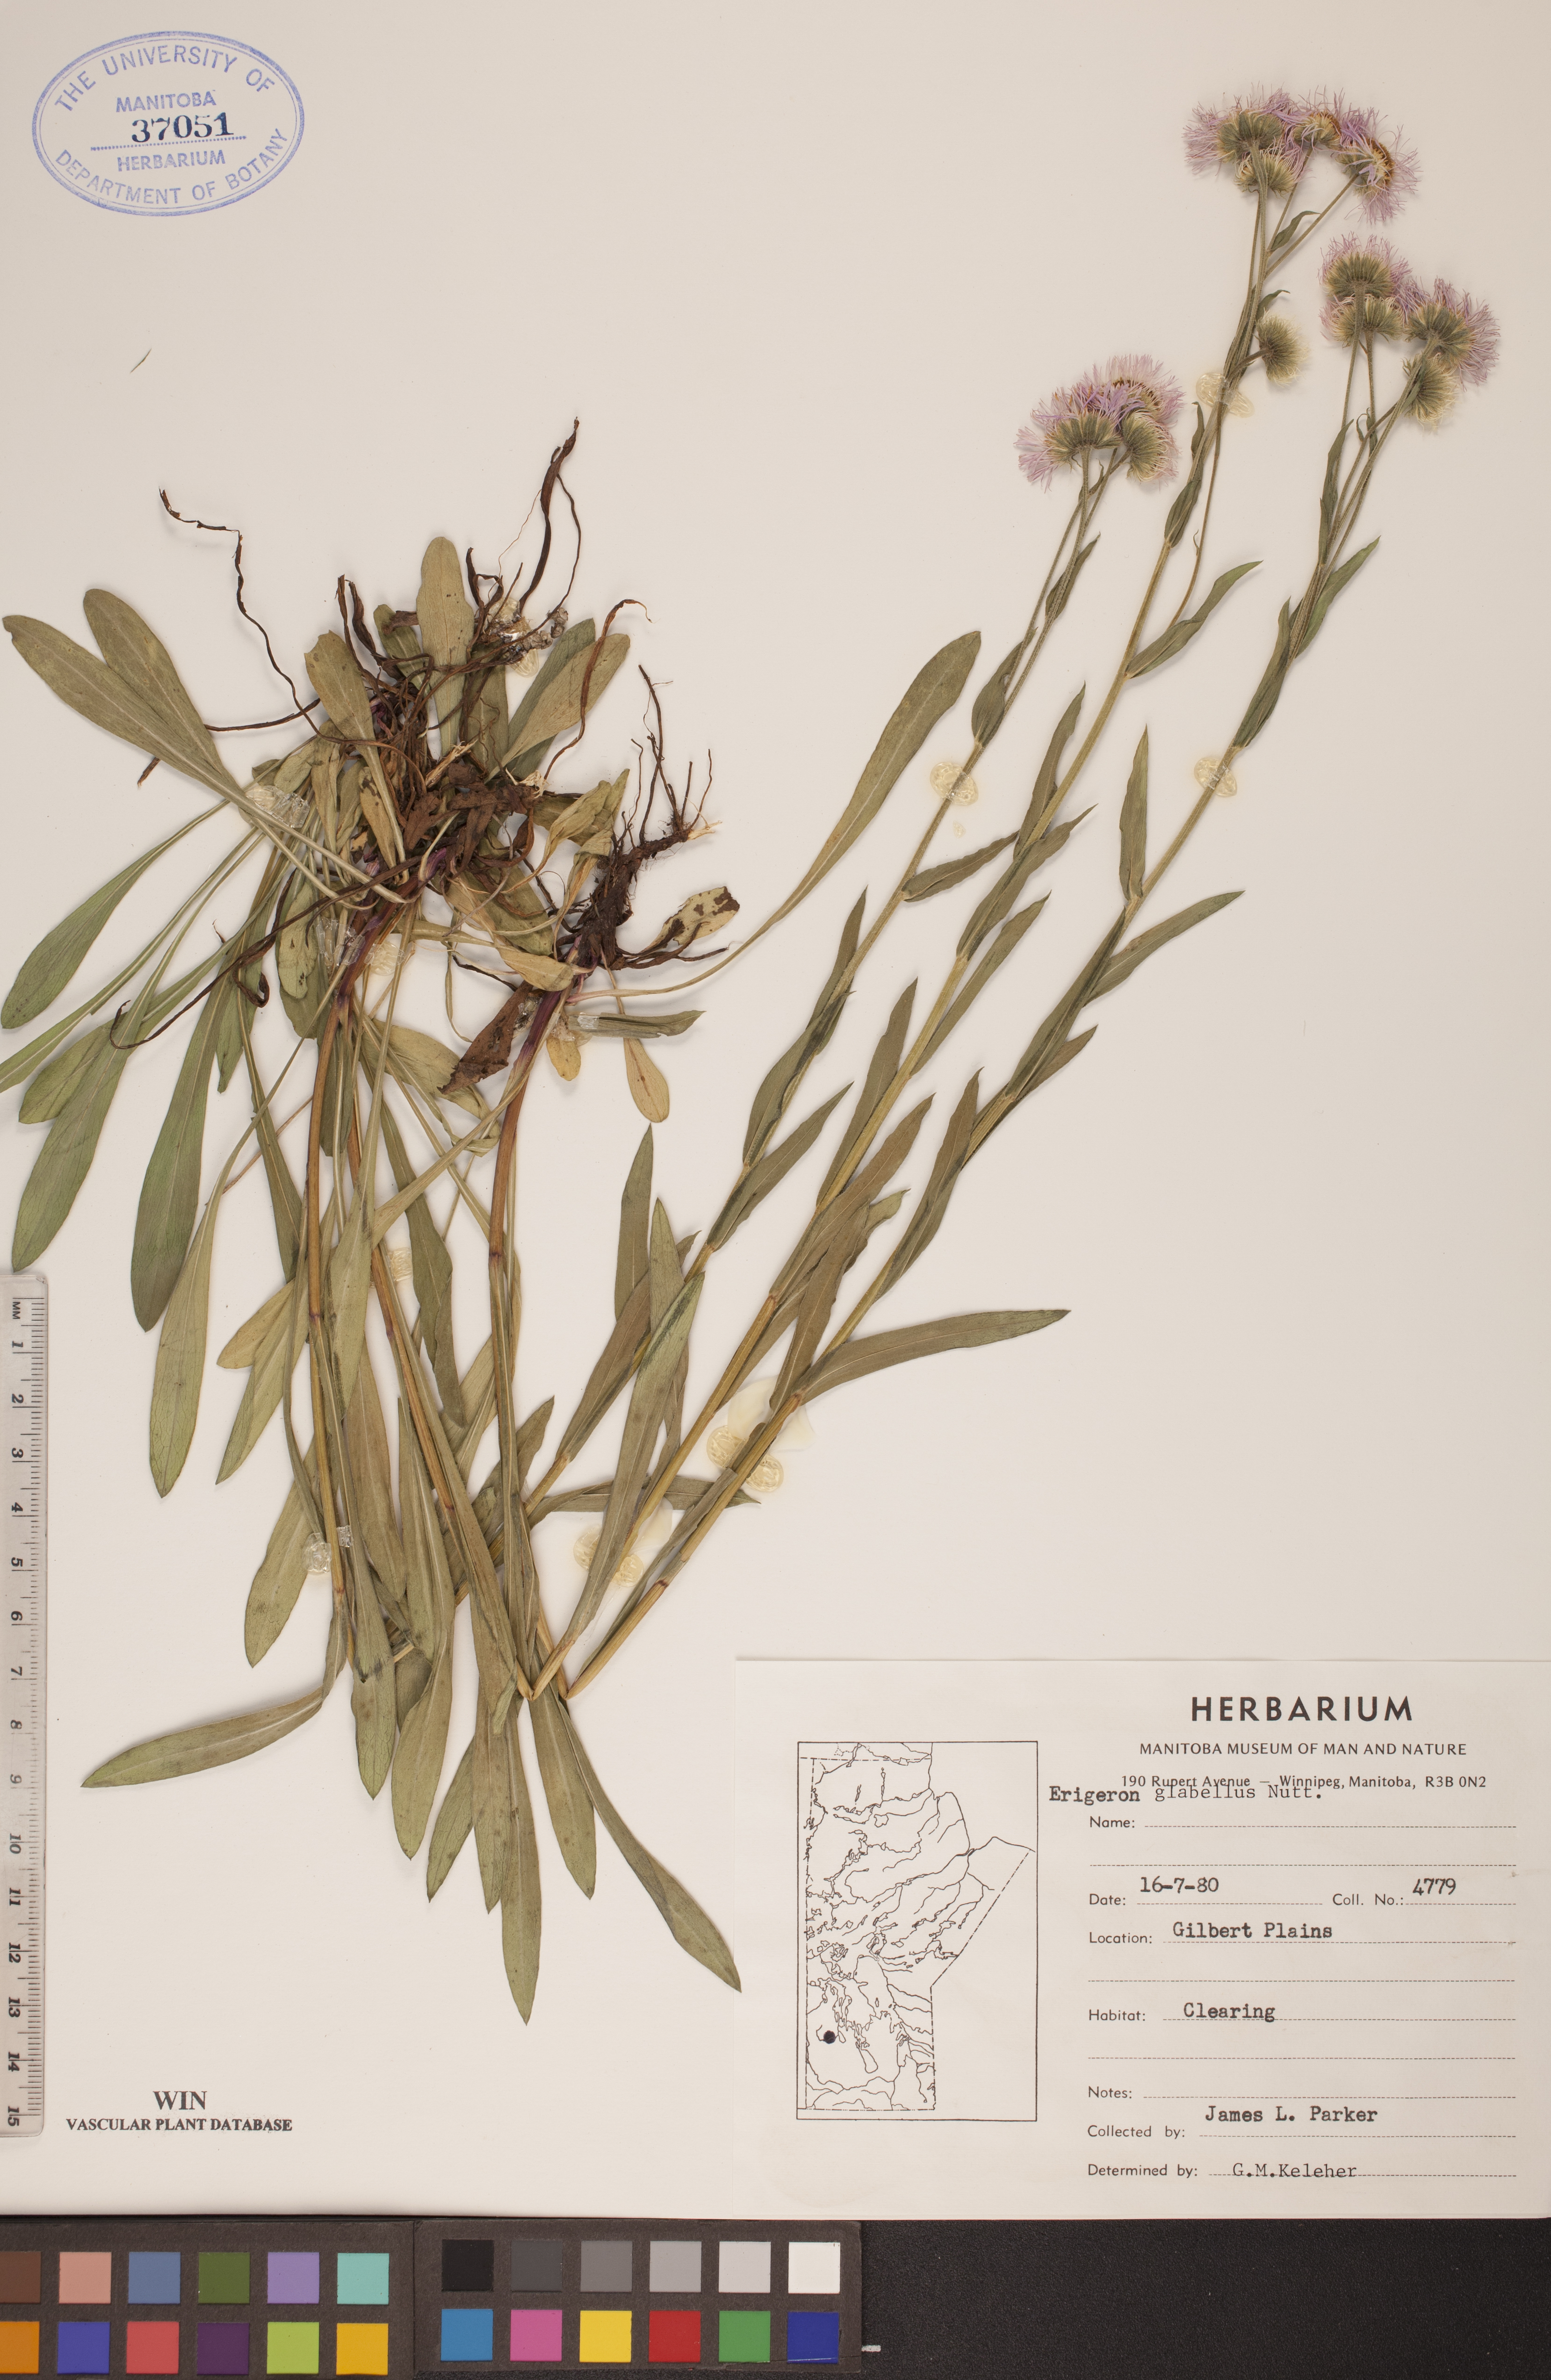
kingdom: Plantae
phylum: Tracheophyta
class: Magnoliopsida
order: Asterales
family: Asteraceae
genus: Erigeron
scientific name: Erigeron glabellus
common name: Smooth fleabane
